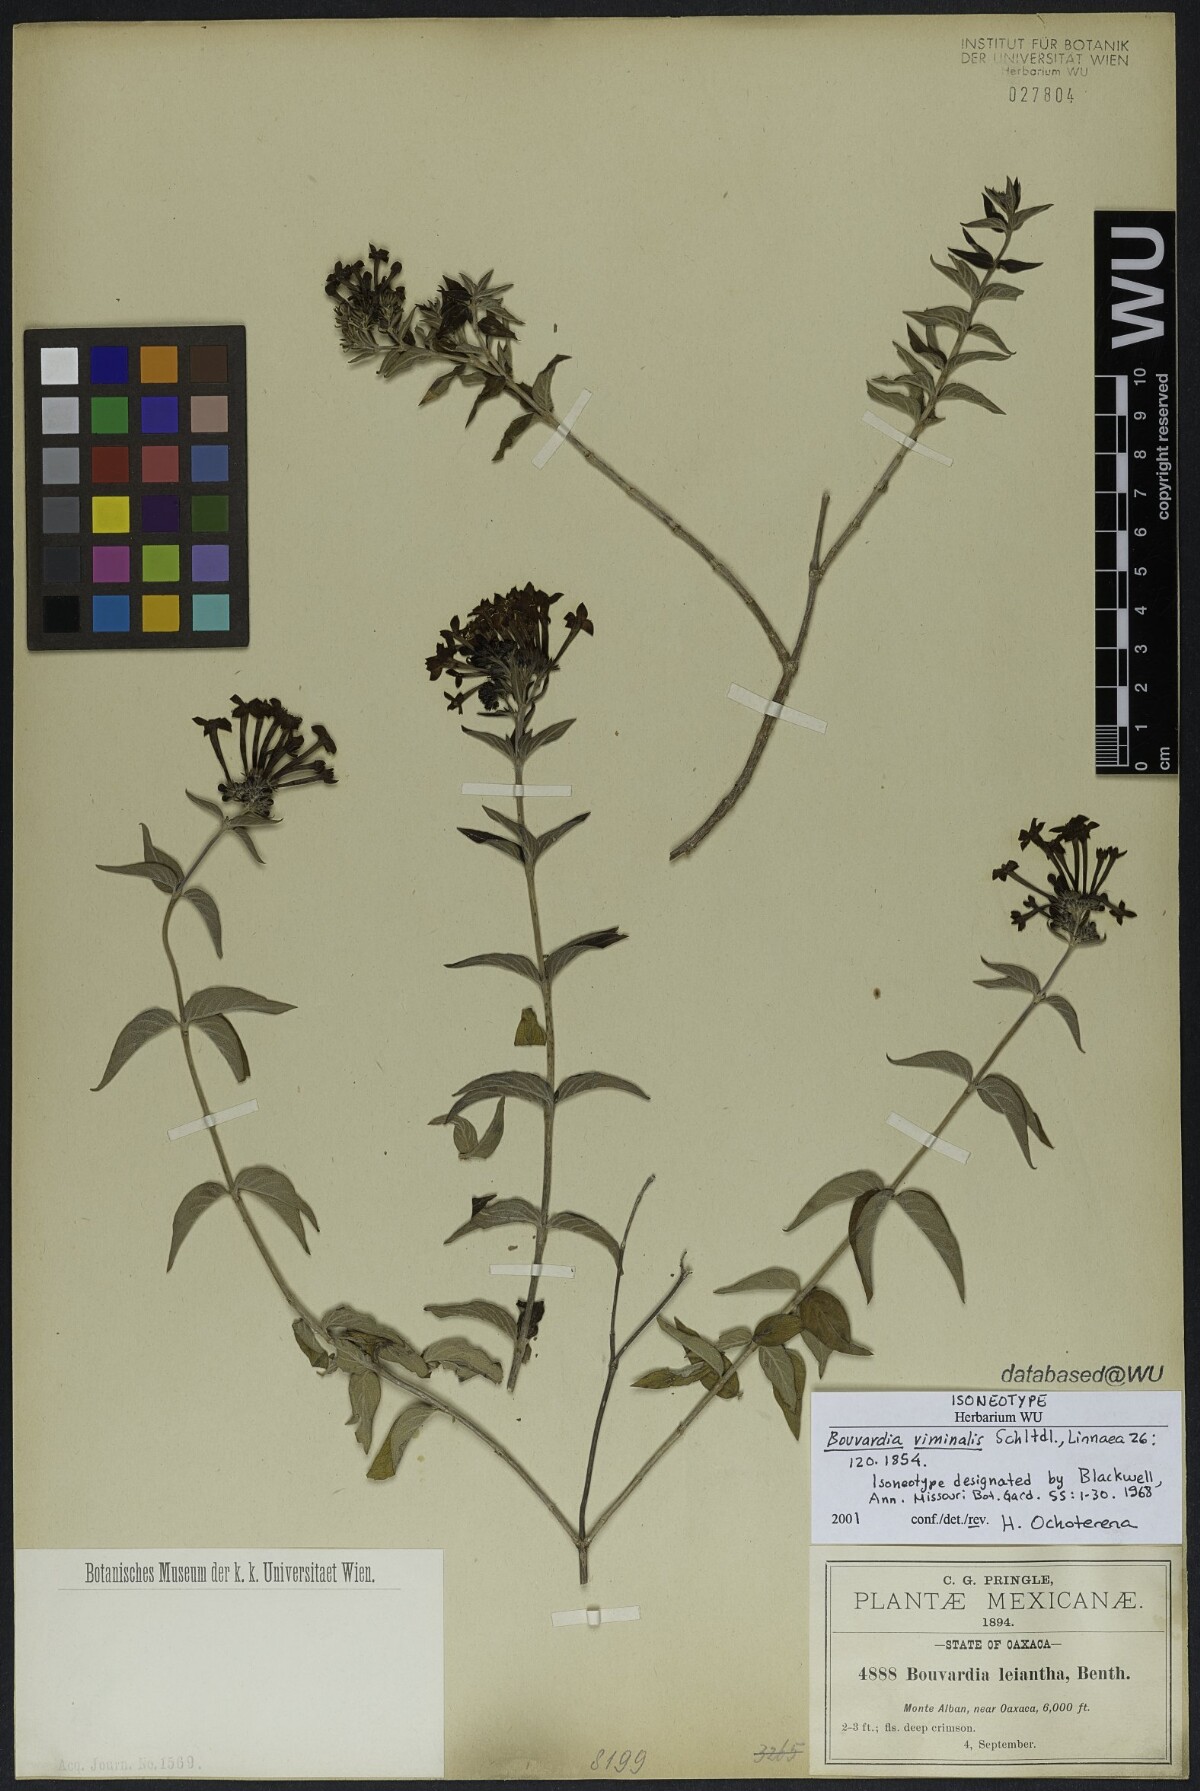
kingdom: Plantae
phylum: Tracheophyta
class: Magnoliopsida
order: Gentianales
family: Rubiaceae
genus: Bouvardia
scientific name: Bouvardia viminalis
